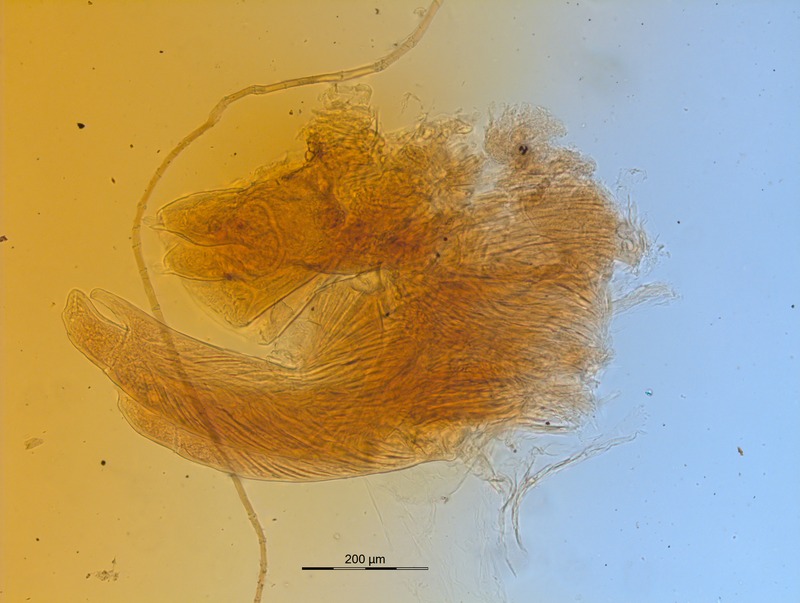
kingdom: Animalia
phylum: Arthropoda
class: Diplopoda
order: Glomerida
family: Glomeridellidae
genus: Glomeridella
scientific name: Glomeridella minima
